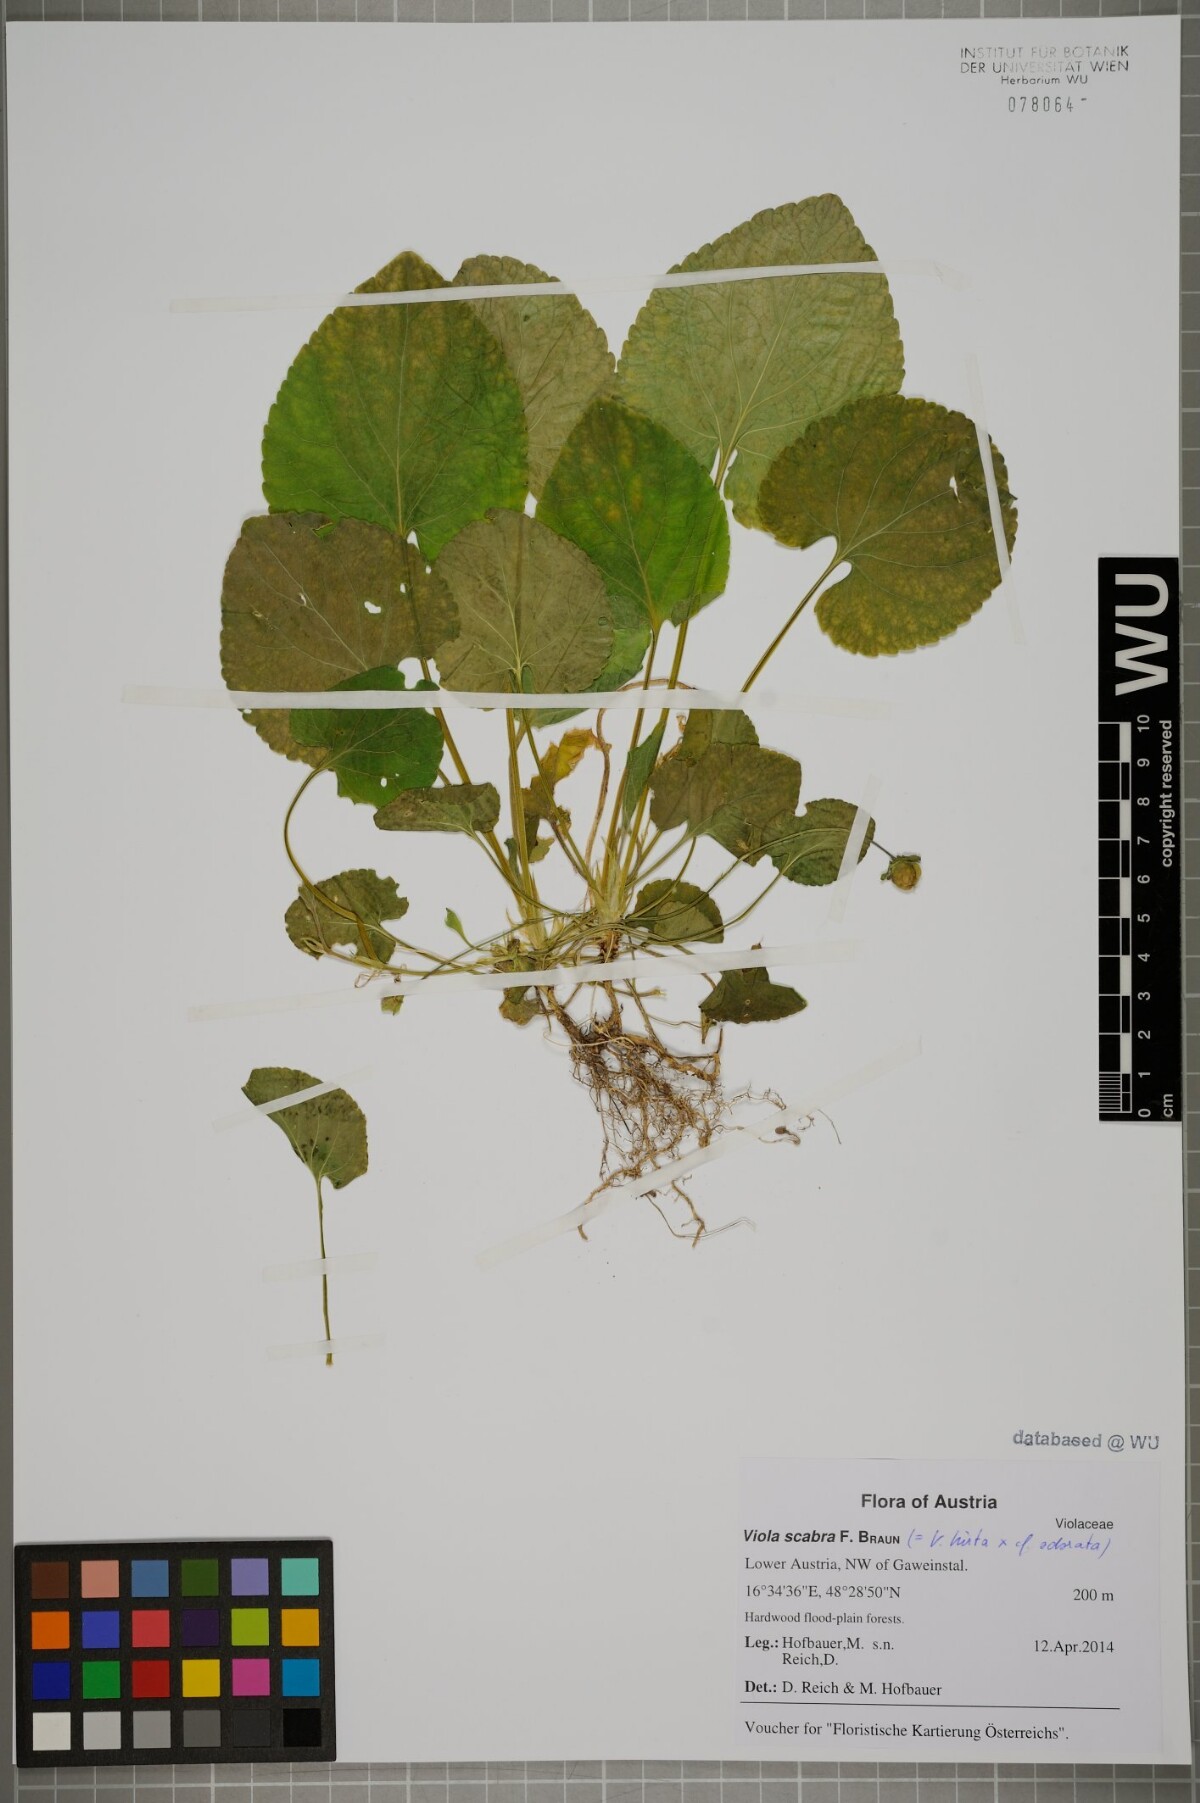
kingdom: Plantae
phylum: Tracheophyta
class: Magnoliopsida
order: Malpighiales
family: Violaceae
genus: Viola
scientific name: Viola scabra
